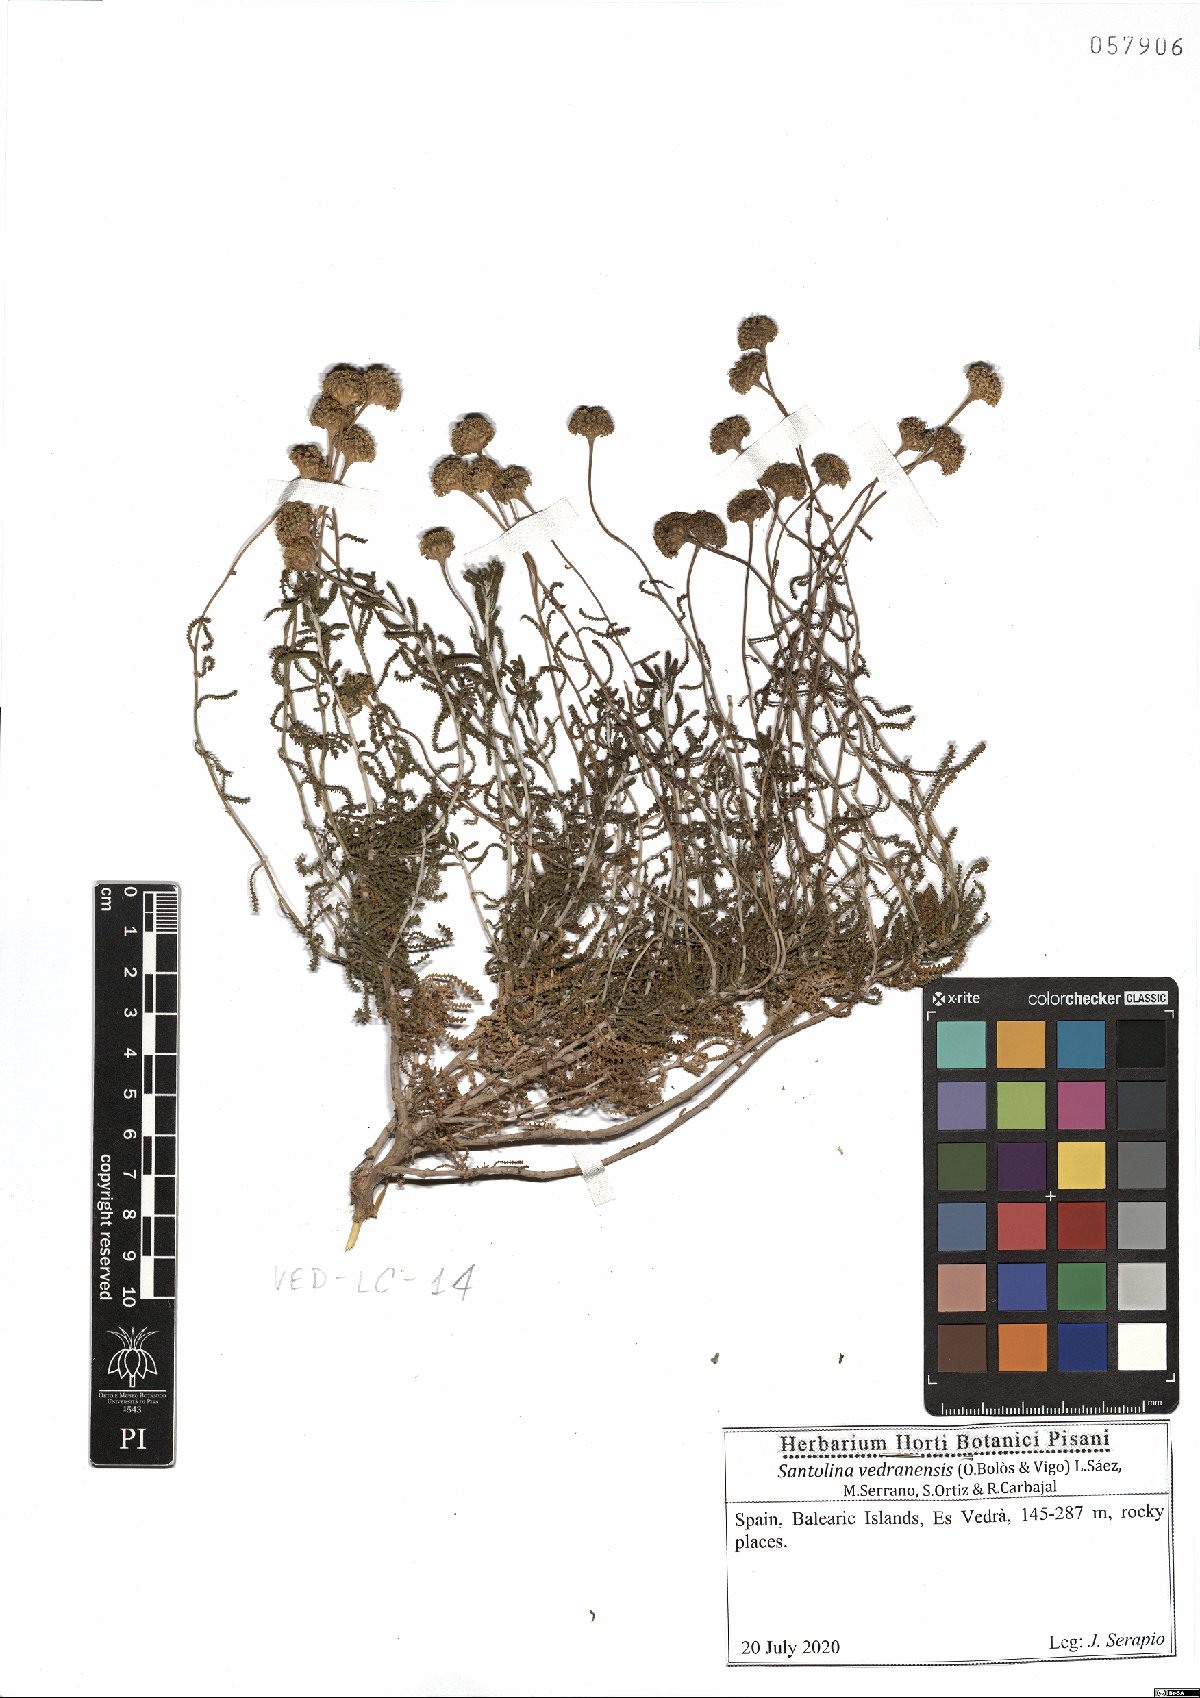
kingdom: Plantae
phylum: Tracheophyta
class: Magnoliopsida
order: Asterales
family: Asteraceae
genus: Santolina
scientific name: Santolina vedranensis
